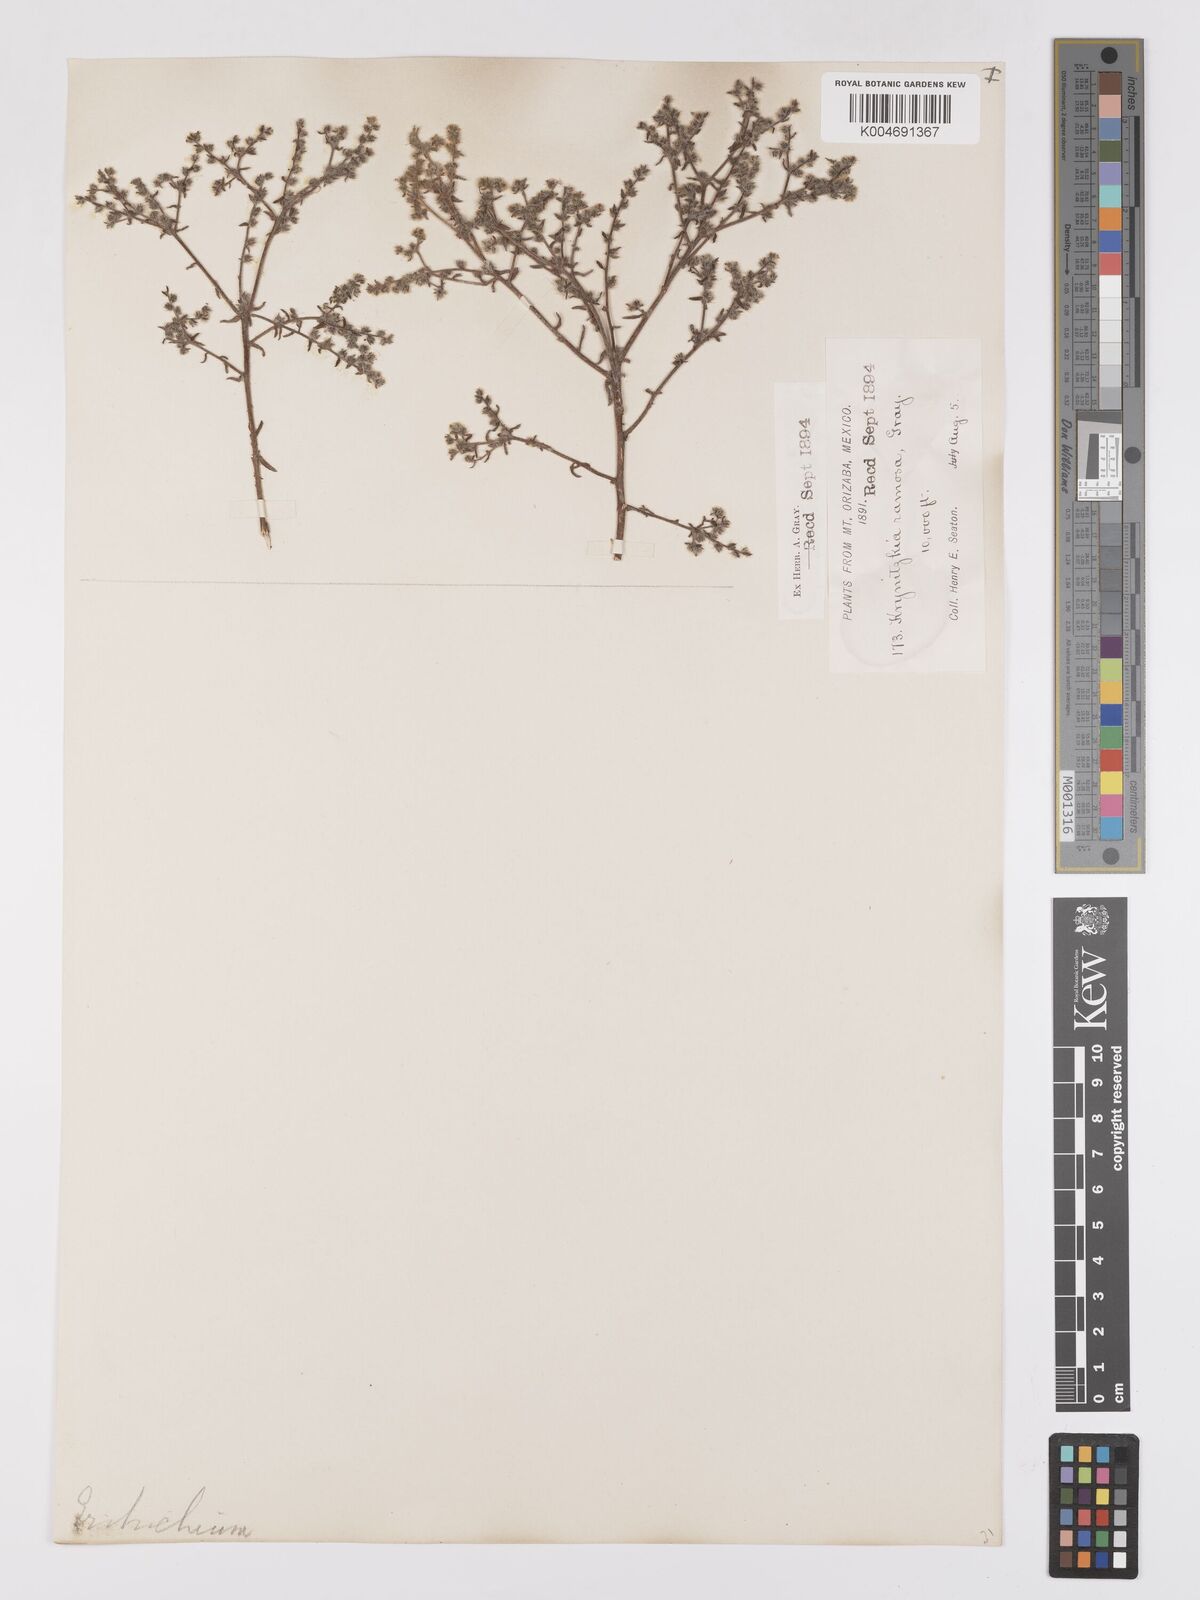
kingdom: Plantae
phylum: Tracheophyta
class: Magnoliopsida
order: Boraginales
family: Boraginaceae
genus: Johnstonella
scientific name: Johnstonella albida
